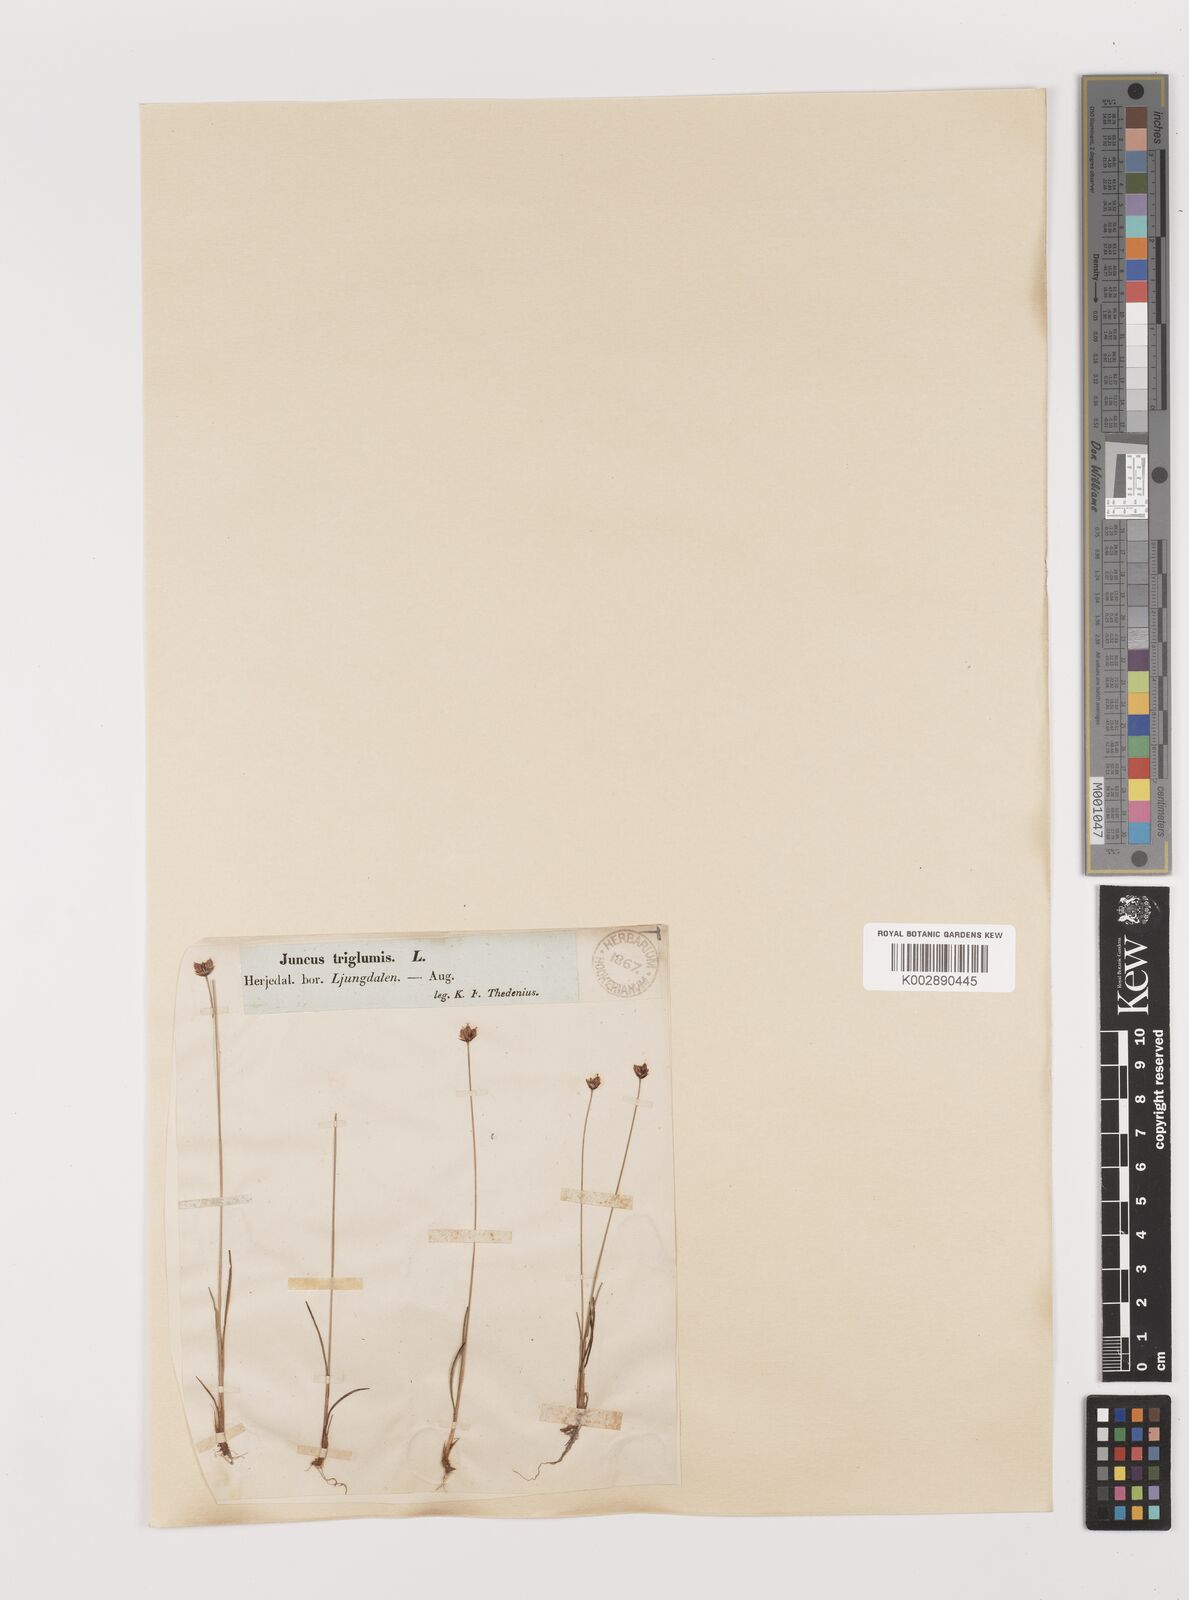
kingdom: Plantae
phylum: Tracheophyta
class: Liliopsida
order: Poales
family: Juncaceae
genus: Juncus
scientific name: Juncus triglumis
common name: Three-flowered rush
